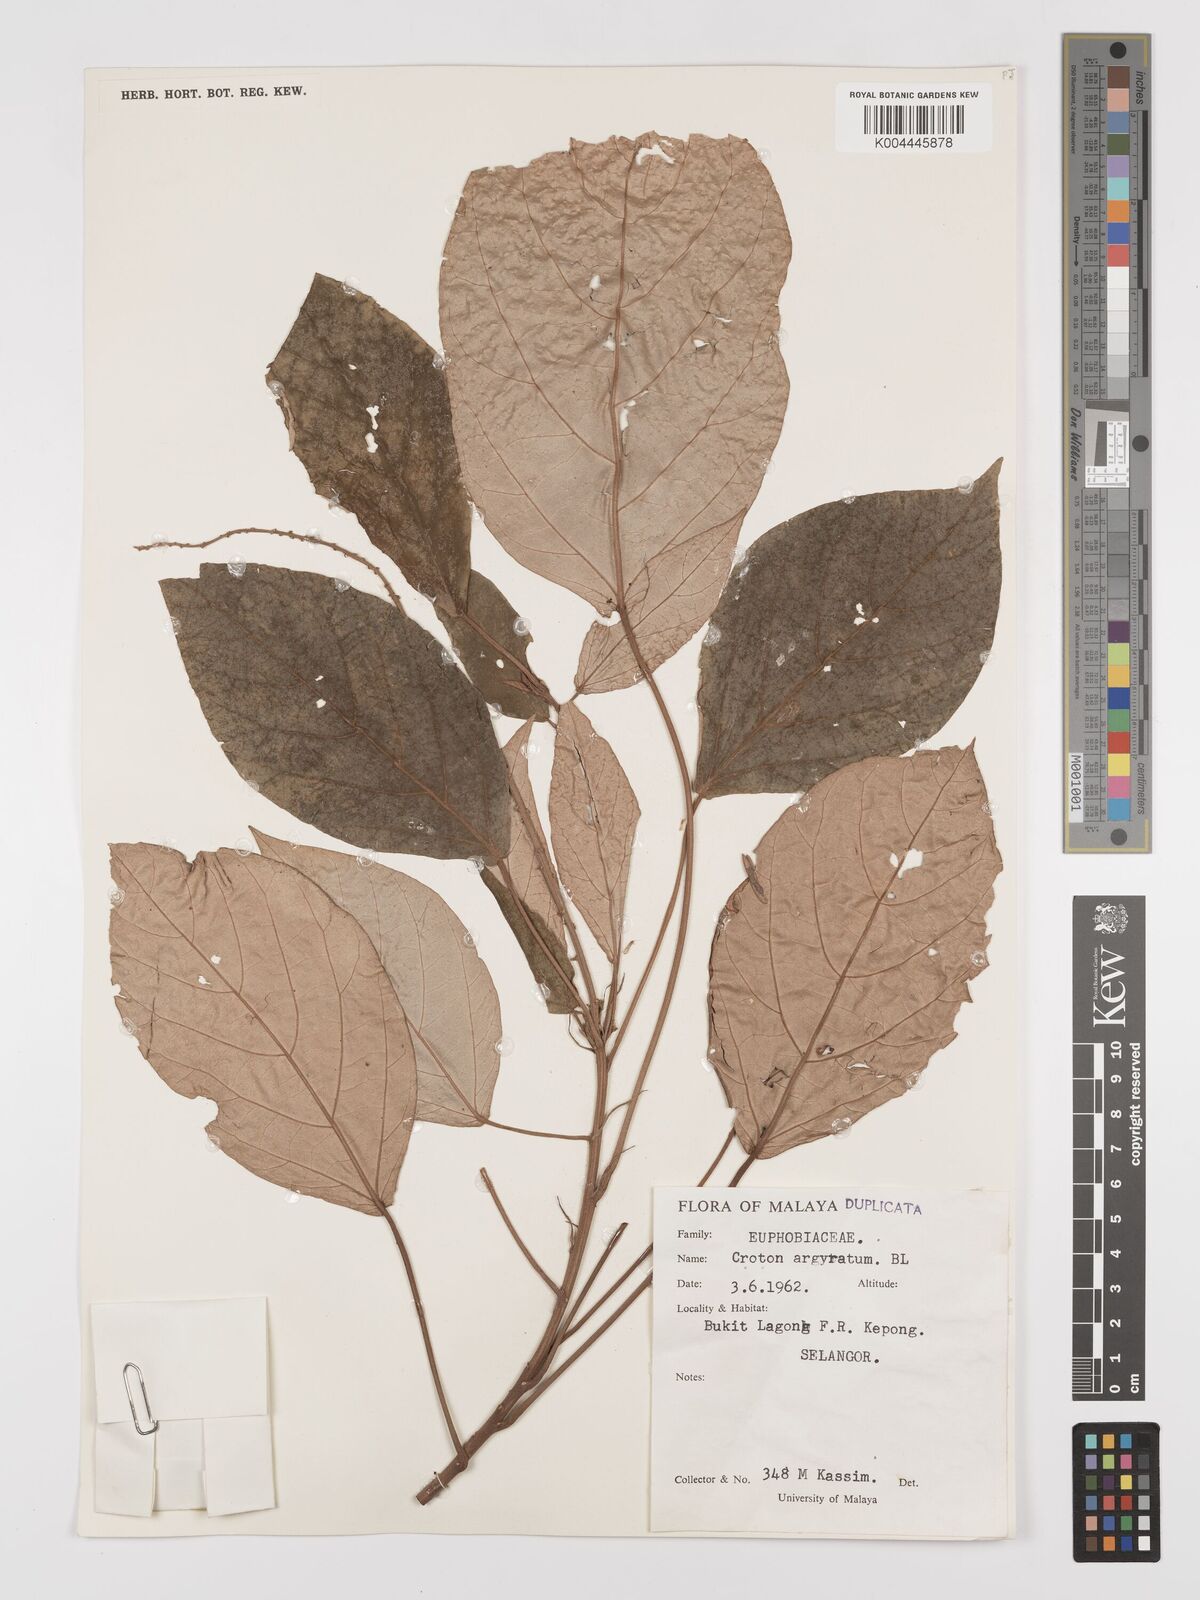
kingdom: Plantae
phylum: Tracheophyta
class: Magnoliopsida
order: Malpighiales
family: Euphorbiaceae
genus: Croton
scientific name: Croton argyratus
